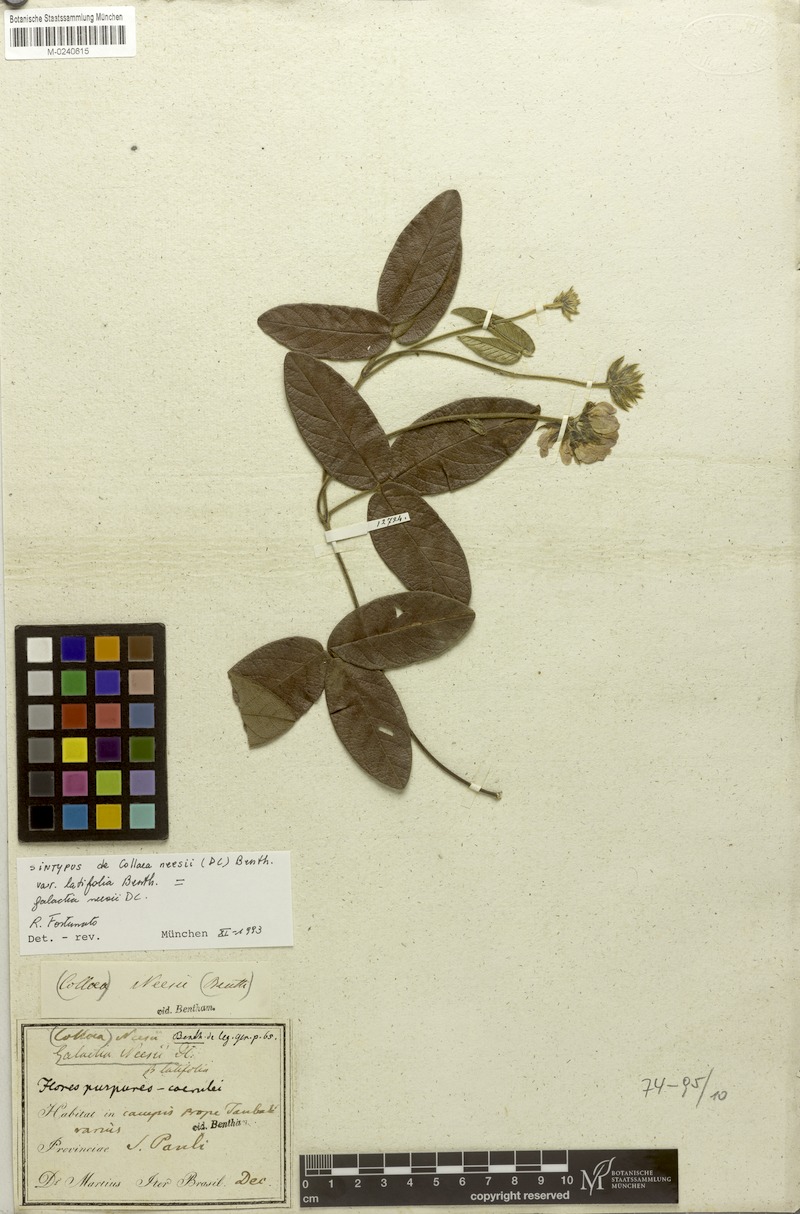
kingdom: Plantae
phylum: Tracheophyta
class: Magnoliopsida
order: Fabales
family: Fabaceae
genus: Betencourtia
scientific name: Betencourtia neesii
